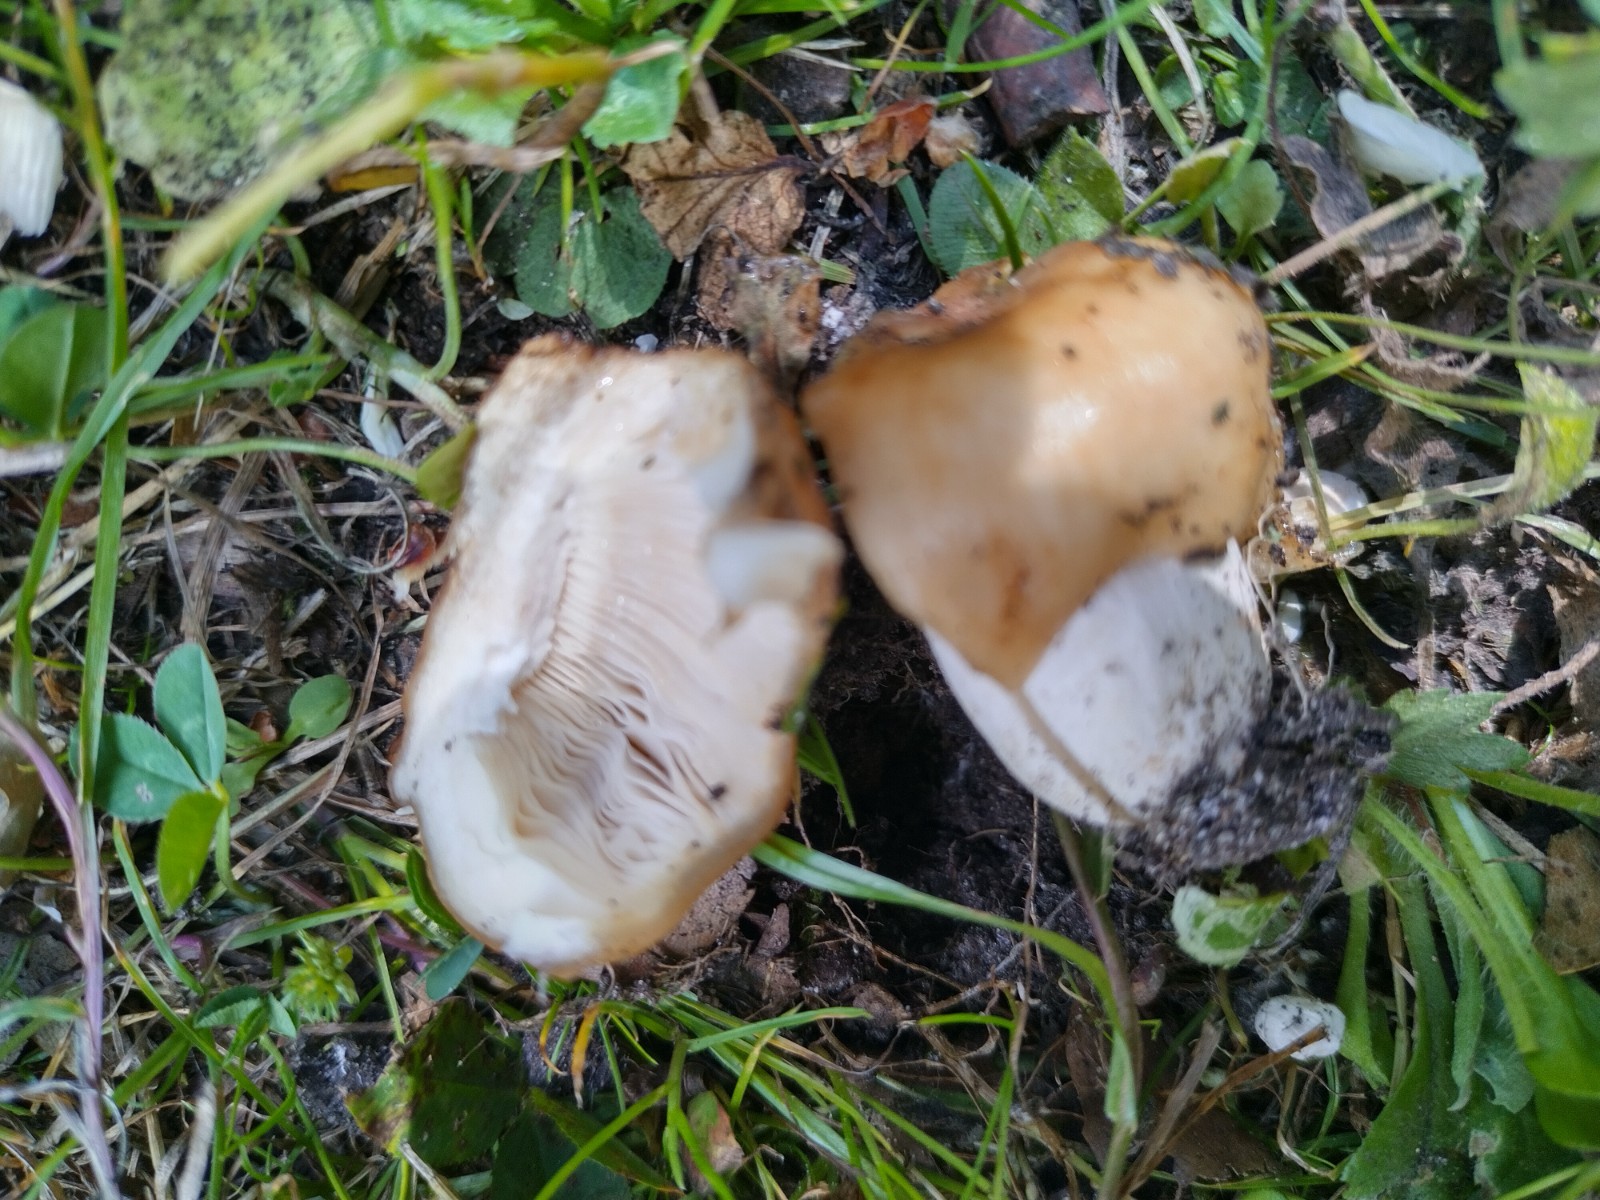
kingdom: Fungi
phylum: Basidiomycota
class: Agaricomycetes
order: Russulales
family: Russulaceae
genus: Russula
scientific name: Russula foetens
